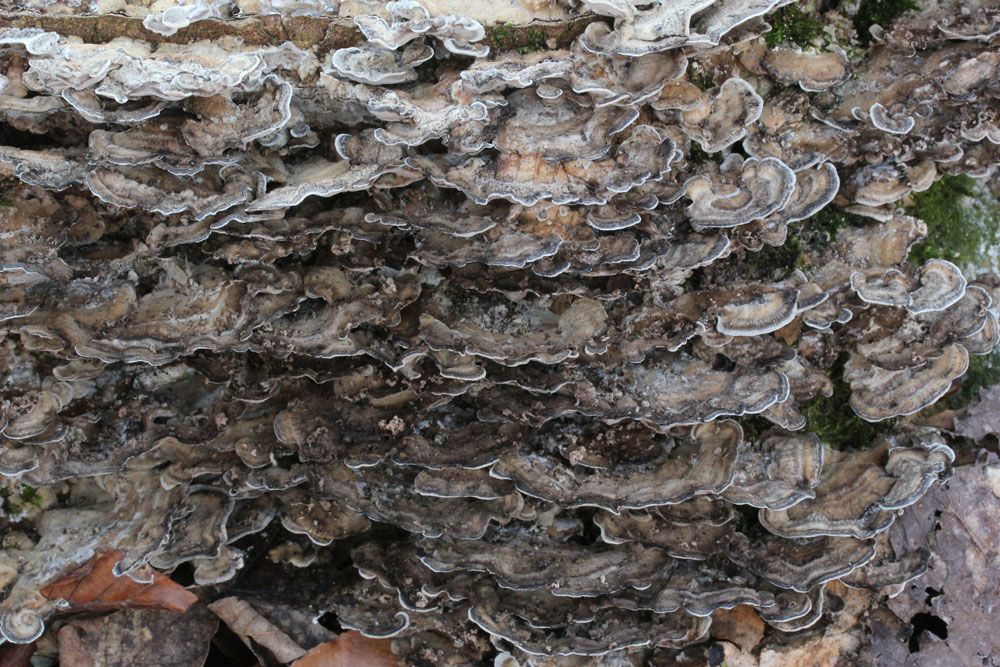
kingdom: Fungi
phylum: Basidiomycota
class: Agaricomycetes
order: Polyporales
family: Phanerochaetaceae
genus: Bjerkandera
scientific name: Bjerkandera adusta
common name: sveden sodporesvamp
